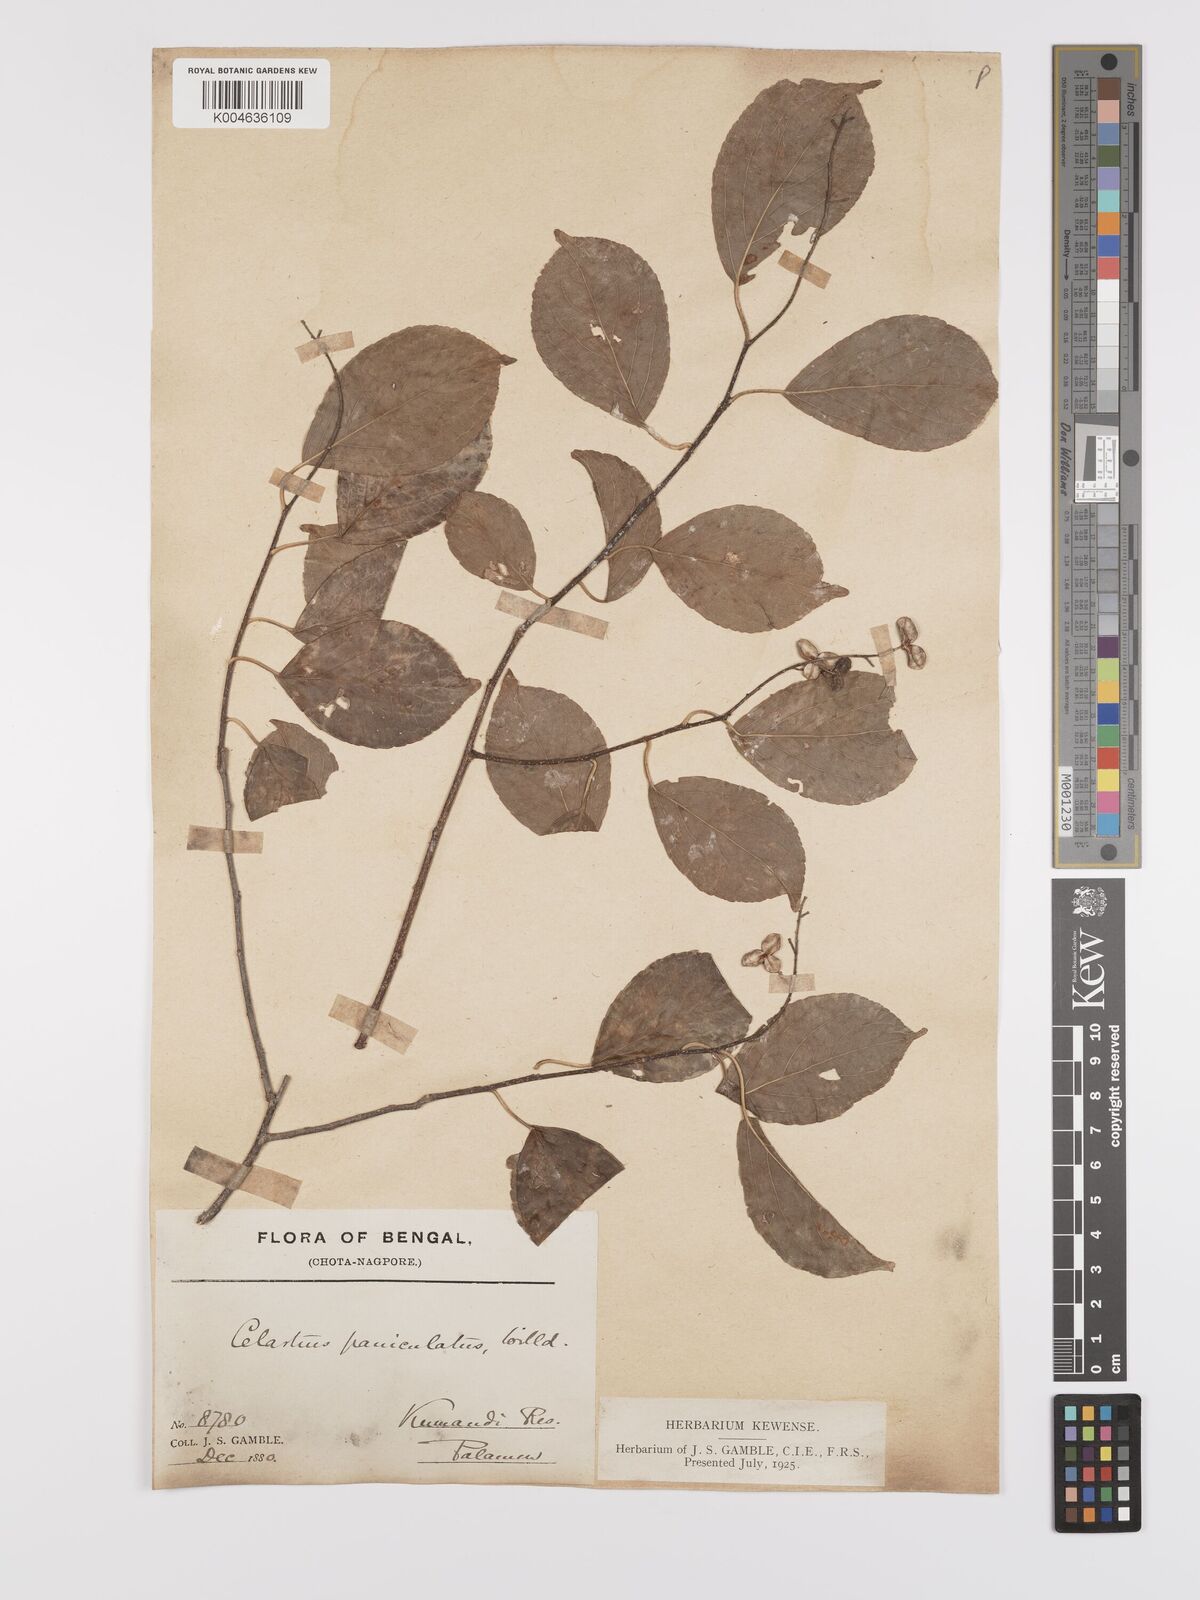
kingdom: Plantae
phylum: Tracheophyta
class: Magnoliopsida
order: Celastrales
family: Celastraceae
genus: Celastrus
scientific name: Celastrus
